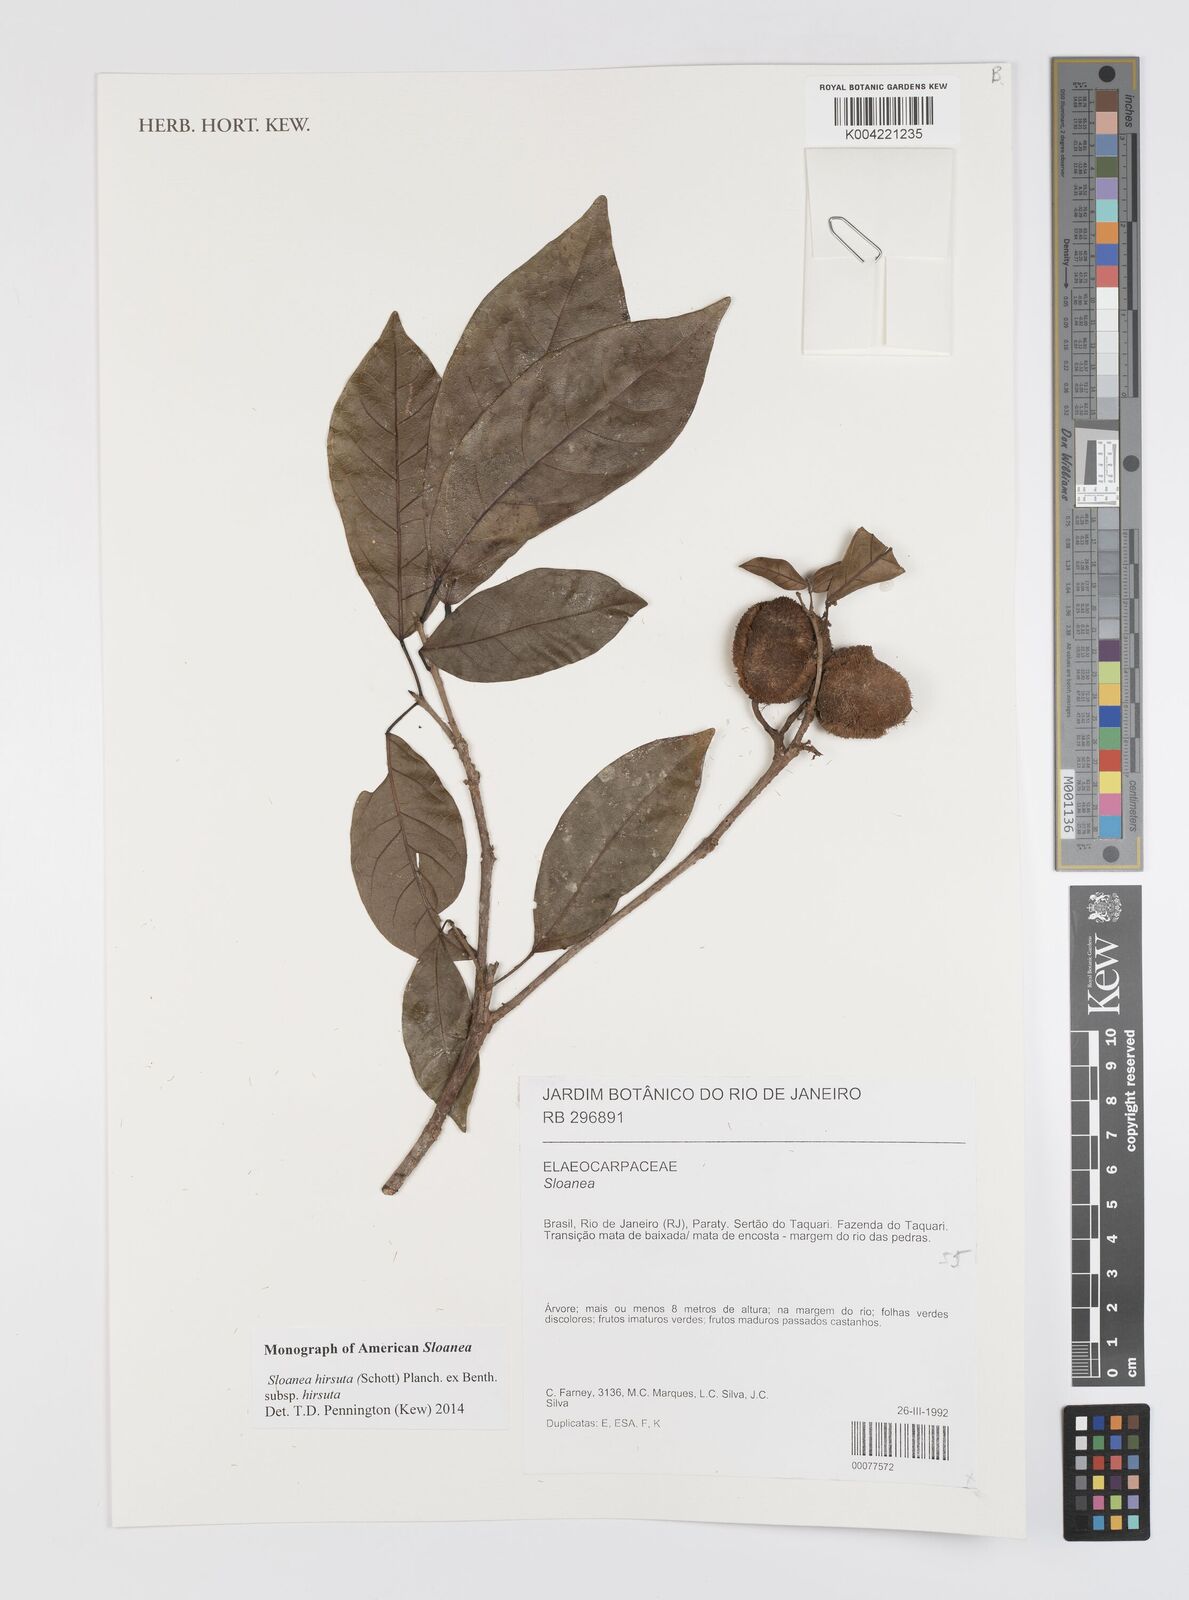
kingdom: Plantae
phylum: Tracheophyta
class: Magnoliopsida
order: Oxalidales
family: Elaeocarpaceae
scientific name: Elaeocarpaceae
